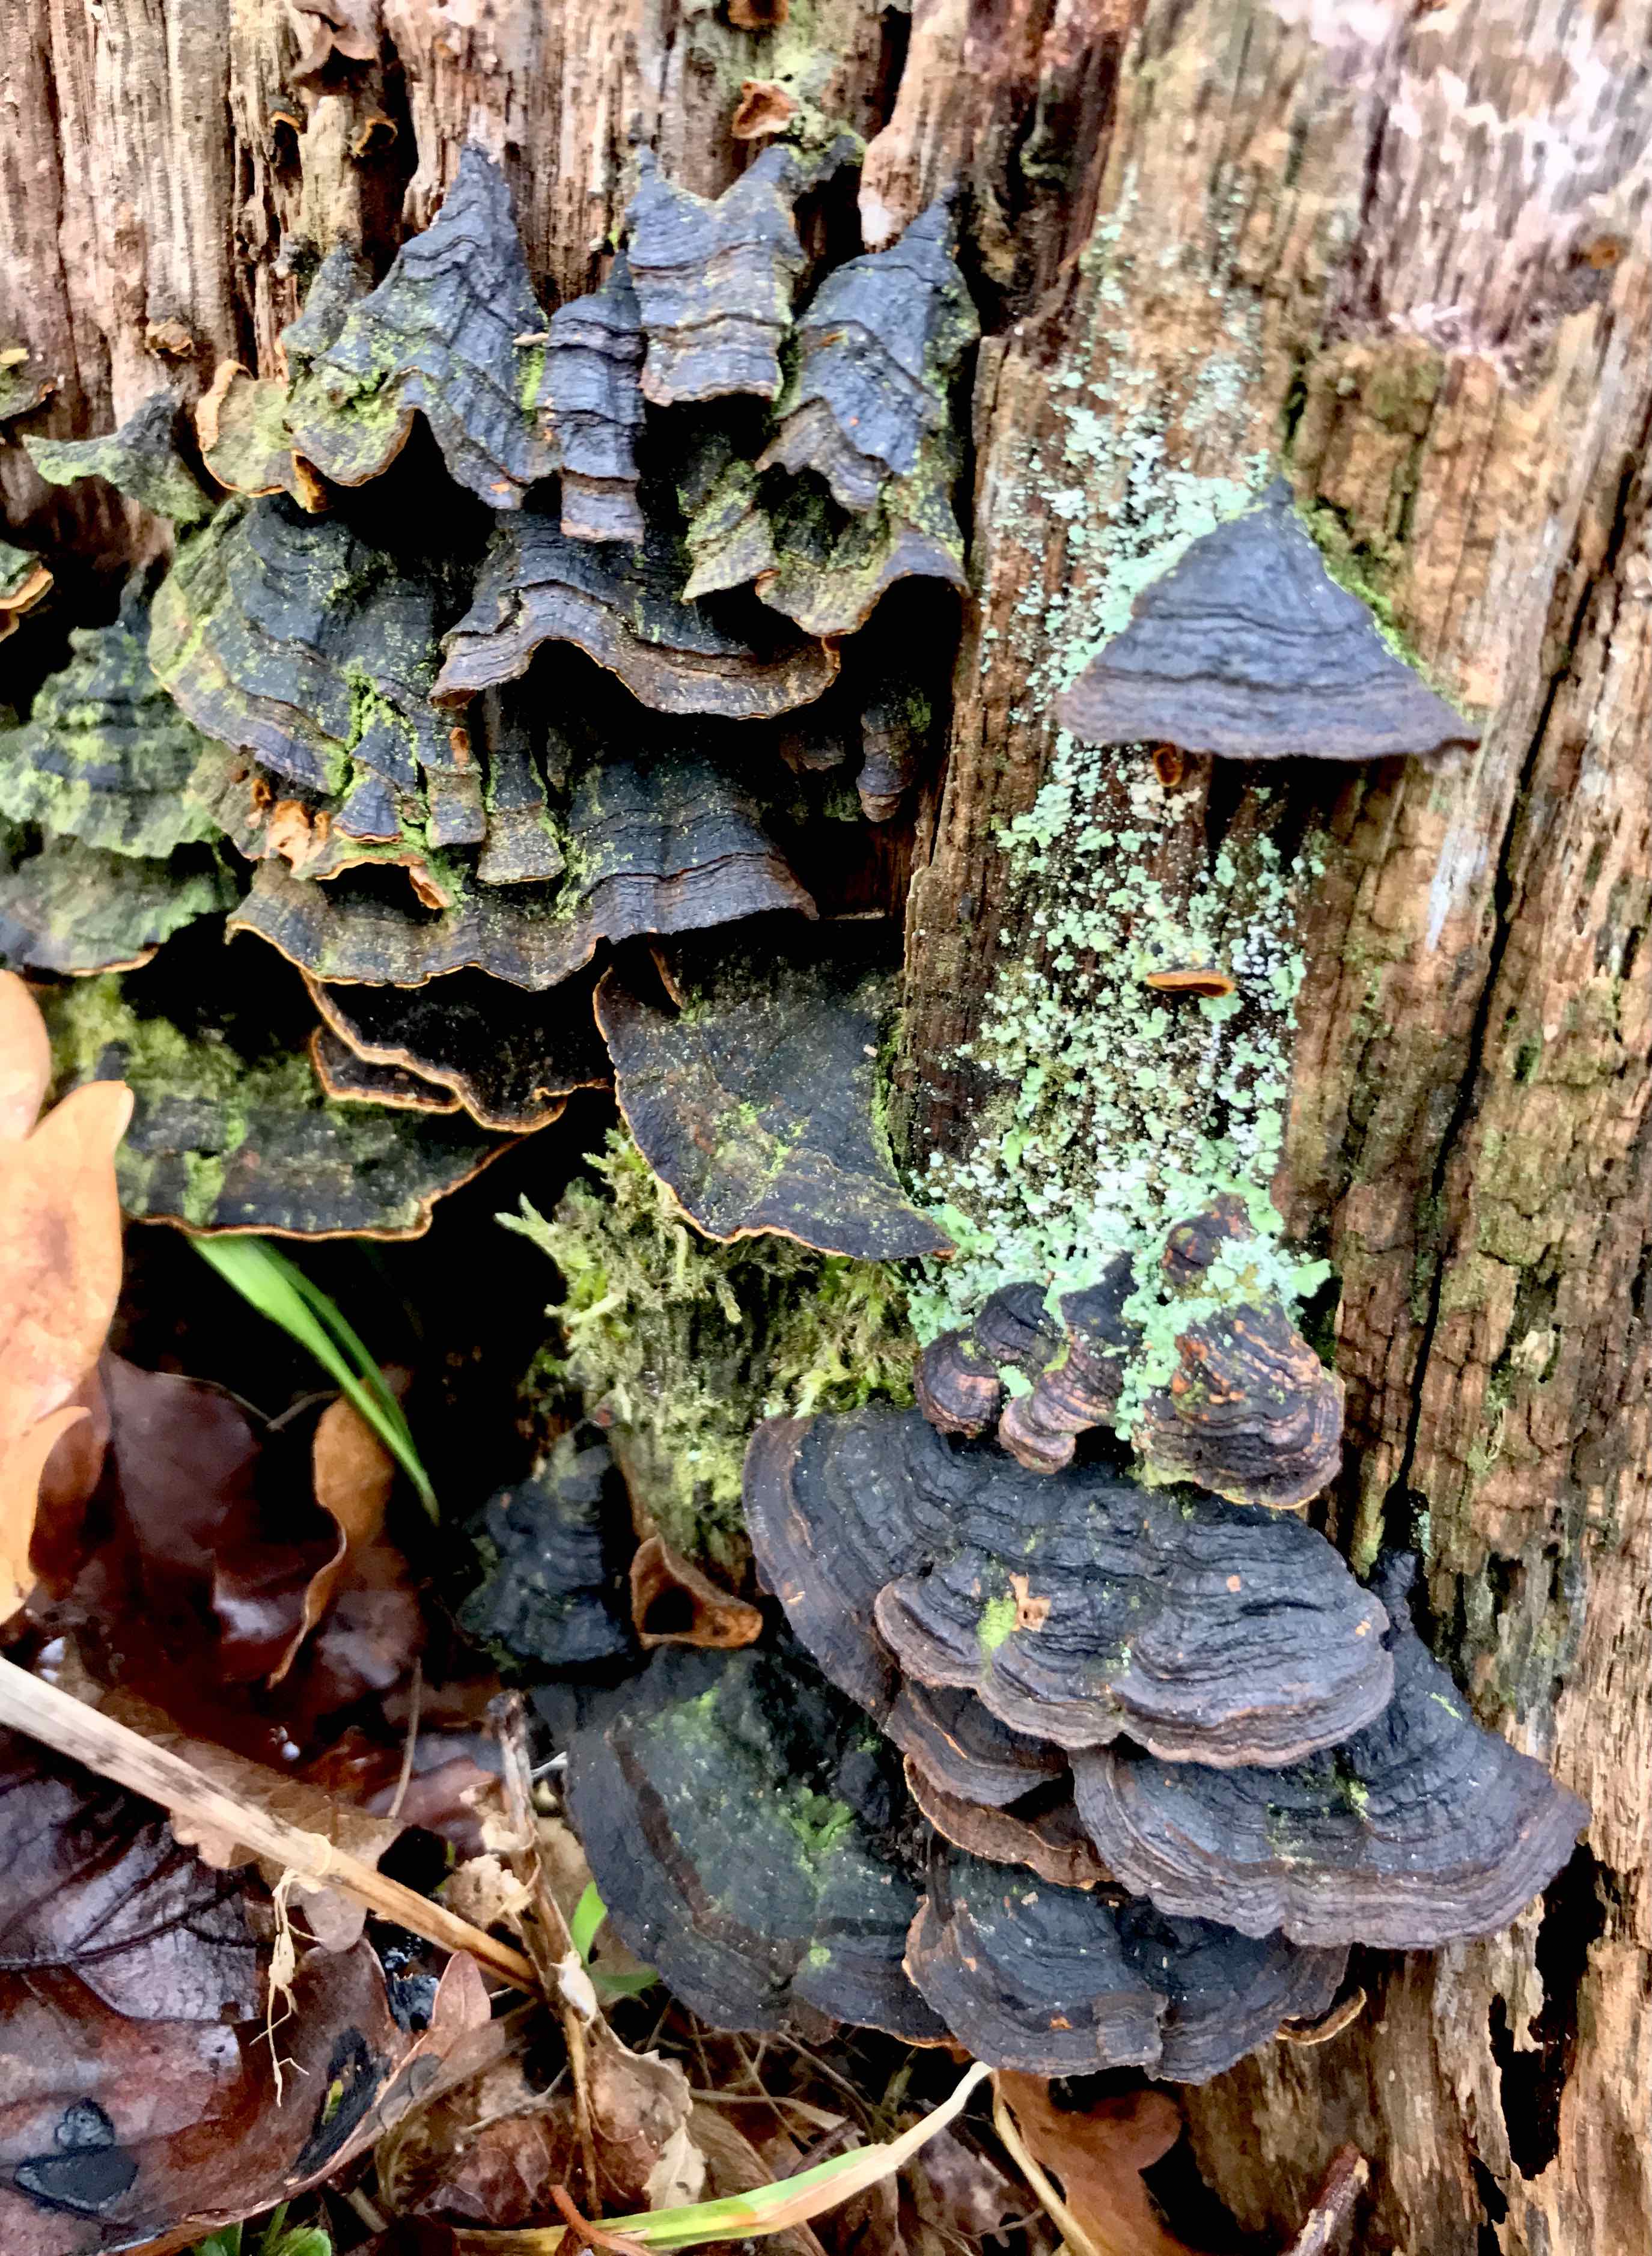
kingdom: Fungi
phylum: Basidiomycota
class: Agaricomycetes
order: Hymenochaetales
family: Hymenochaetaceae
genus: Hymenochaete
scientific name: Hymenochaete rubiginosa
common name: stiv ruslædersvamp
